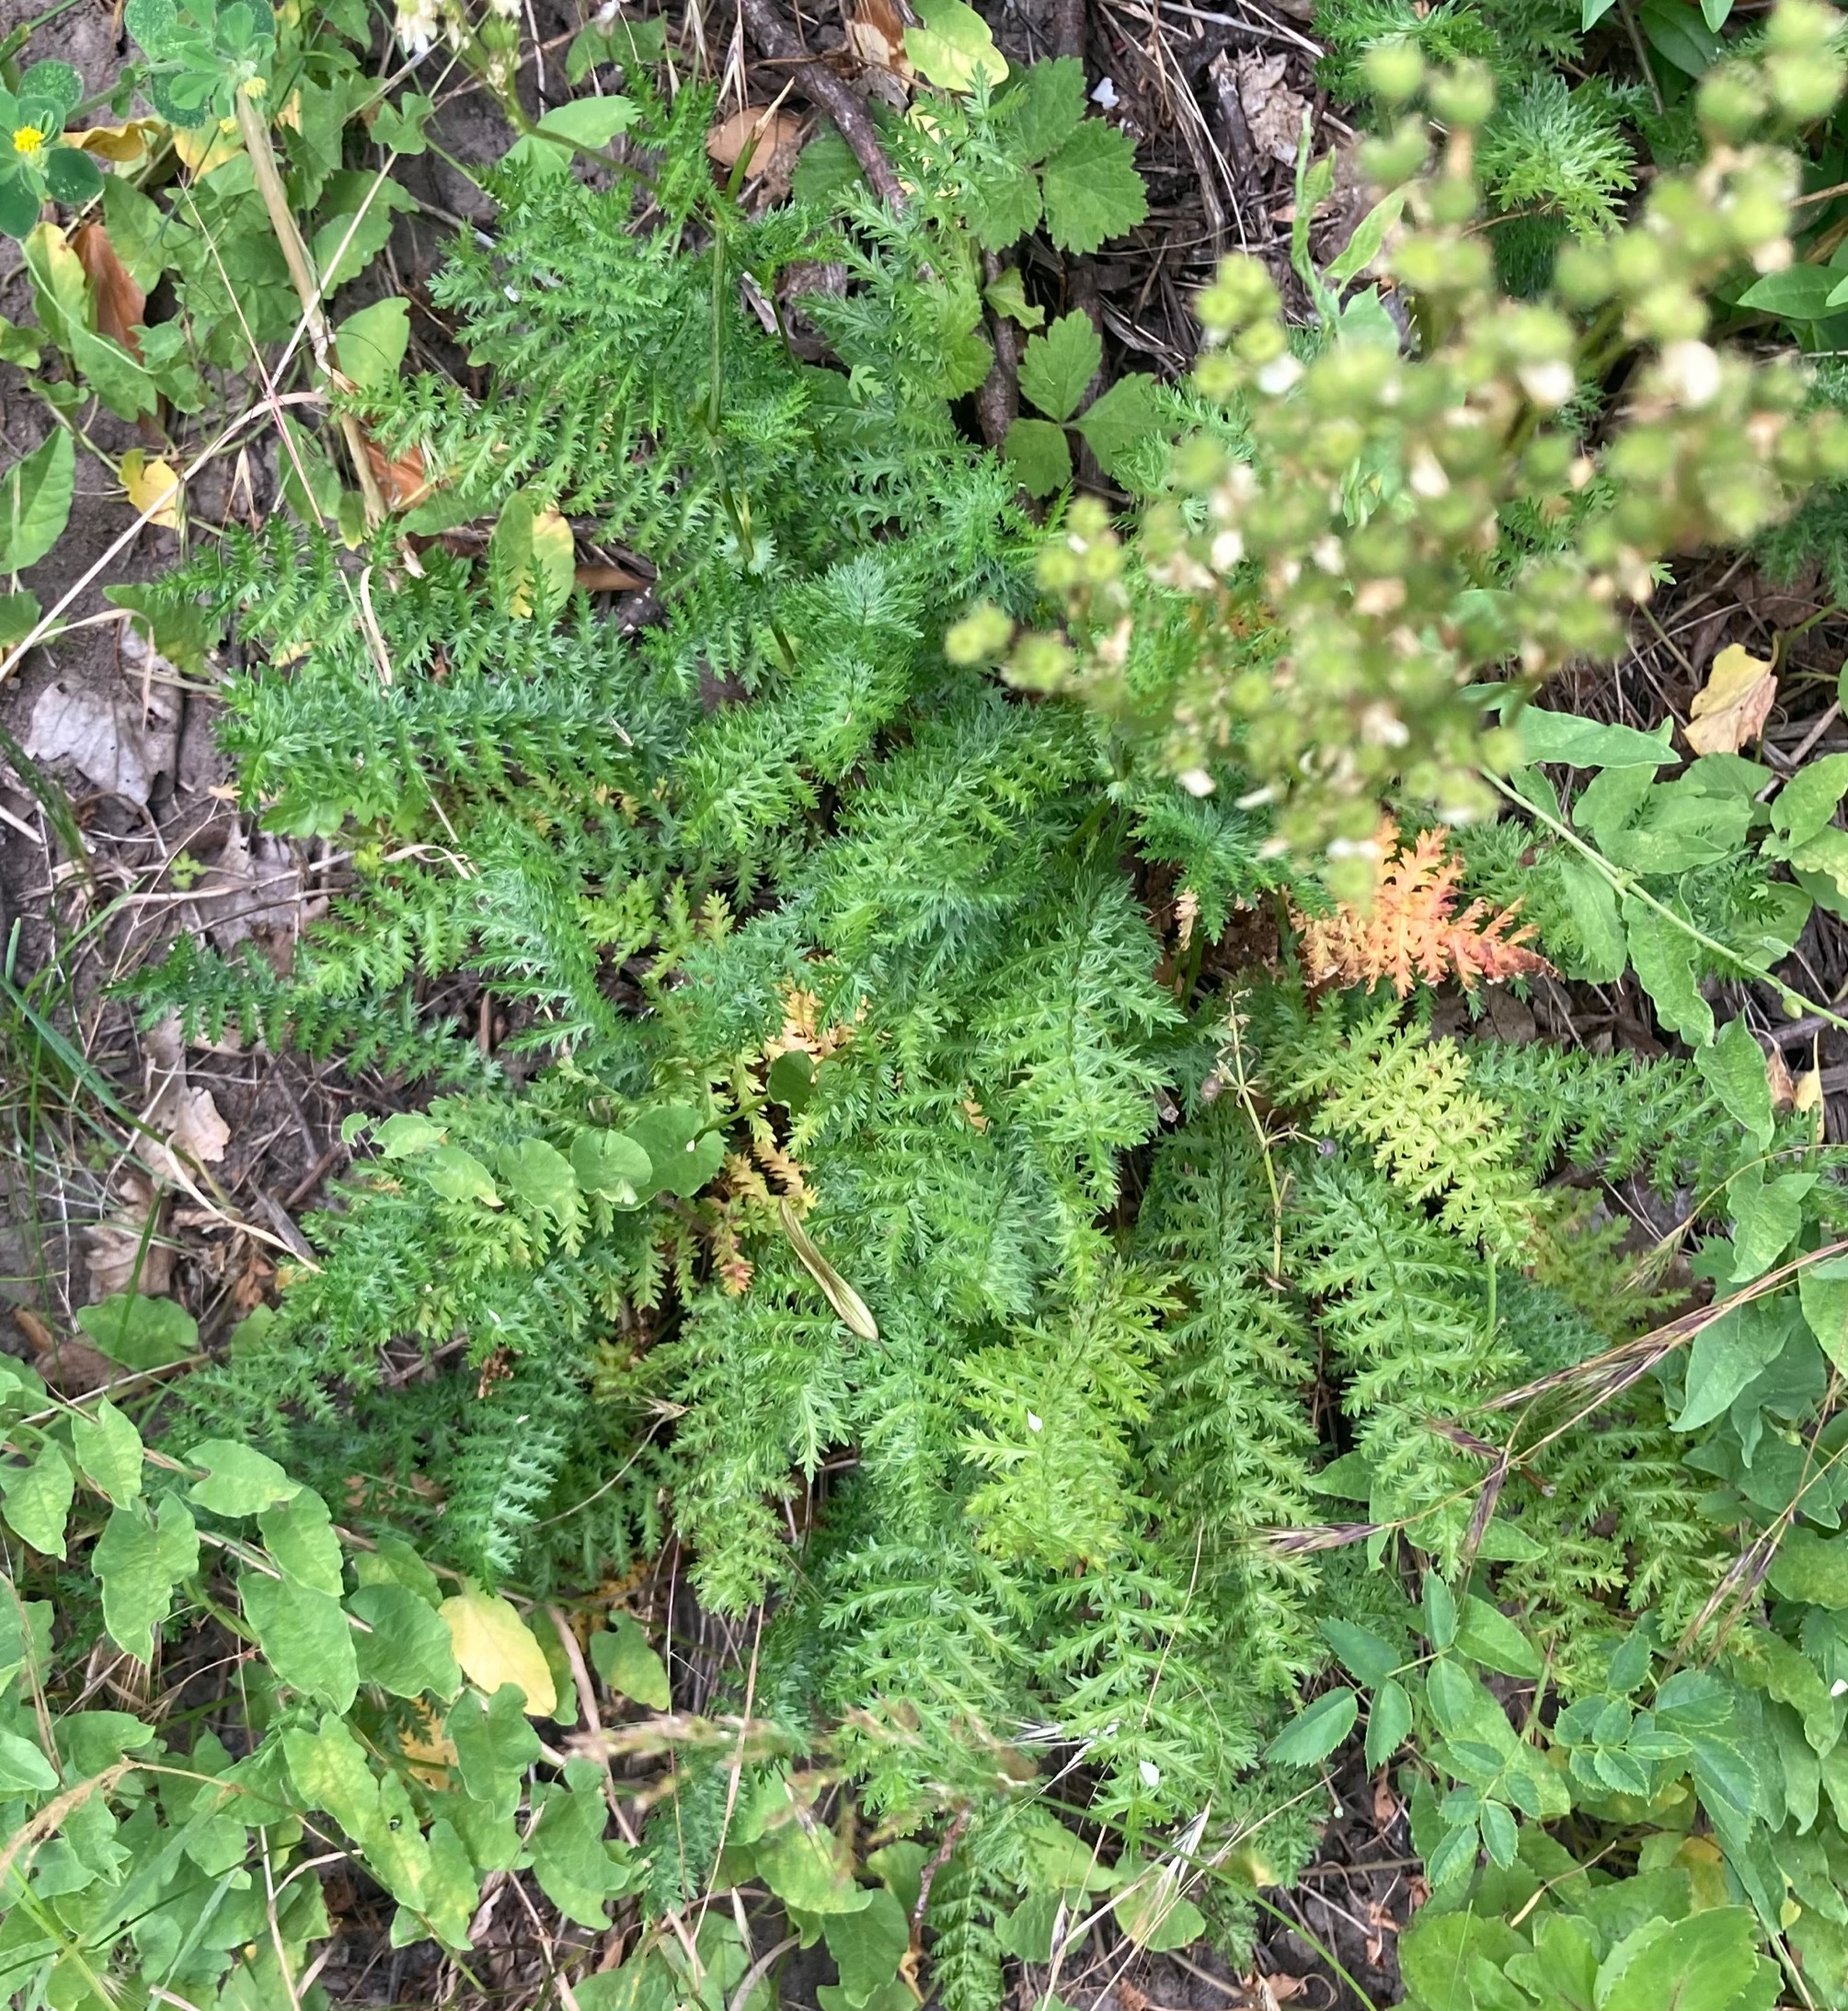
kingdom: Plantae
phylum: Tracheophyta
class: Magnoliopsida
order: Rosales
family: Rosaceae
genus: Filipendula
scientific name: Filipendula vulgaris
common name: Knoldet mjødurt
